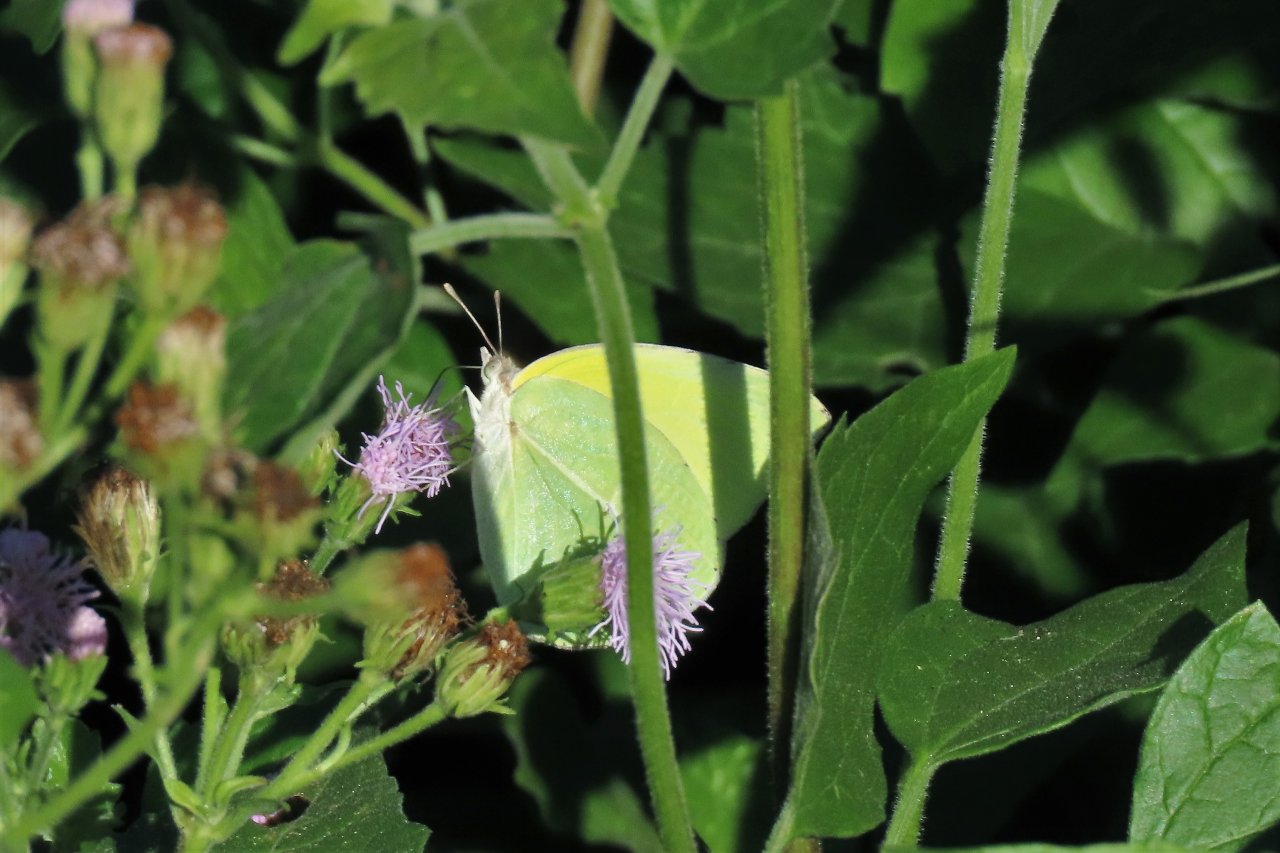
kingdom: Animalia
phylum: Arthropoda
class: Insecta
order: Lepidoptera
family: Pieridae
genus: Kricogonia
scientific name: Kricogonia lyside
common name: Lyside Sulphur
